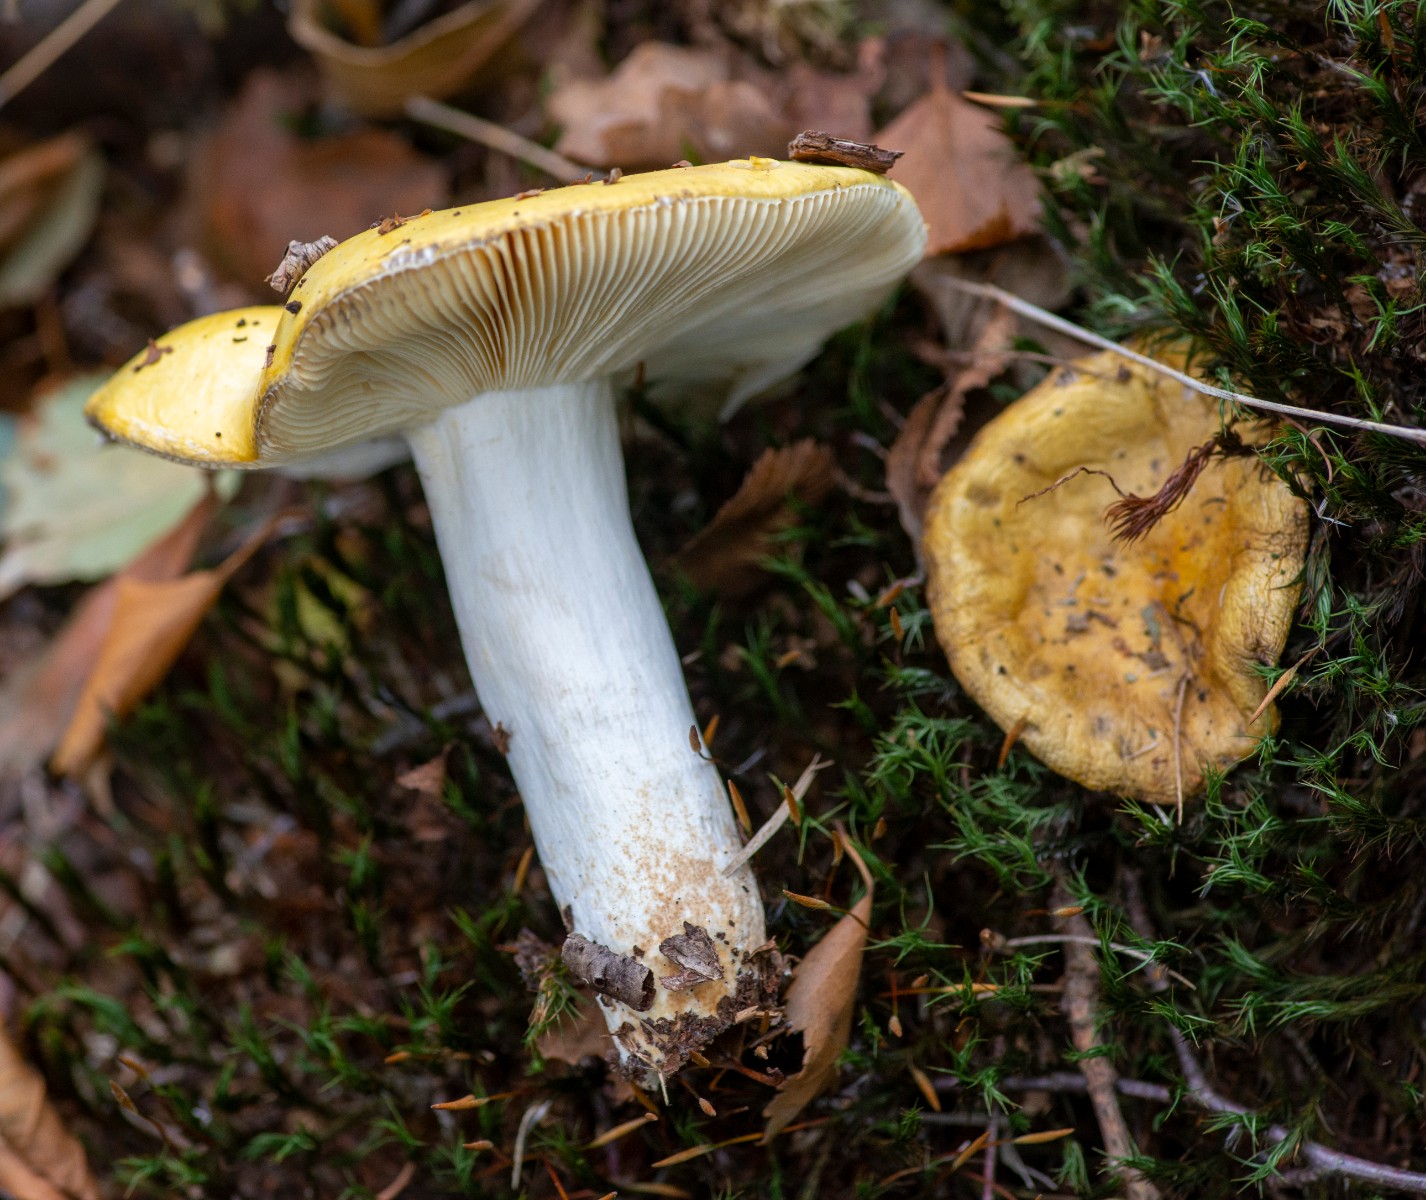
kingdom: Fungi
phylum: Basidiomycota
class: Agaricomycetes
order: Russulales
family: Russulaceae
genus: Russula
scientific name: Russula claroflava
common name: birke-skørhat
